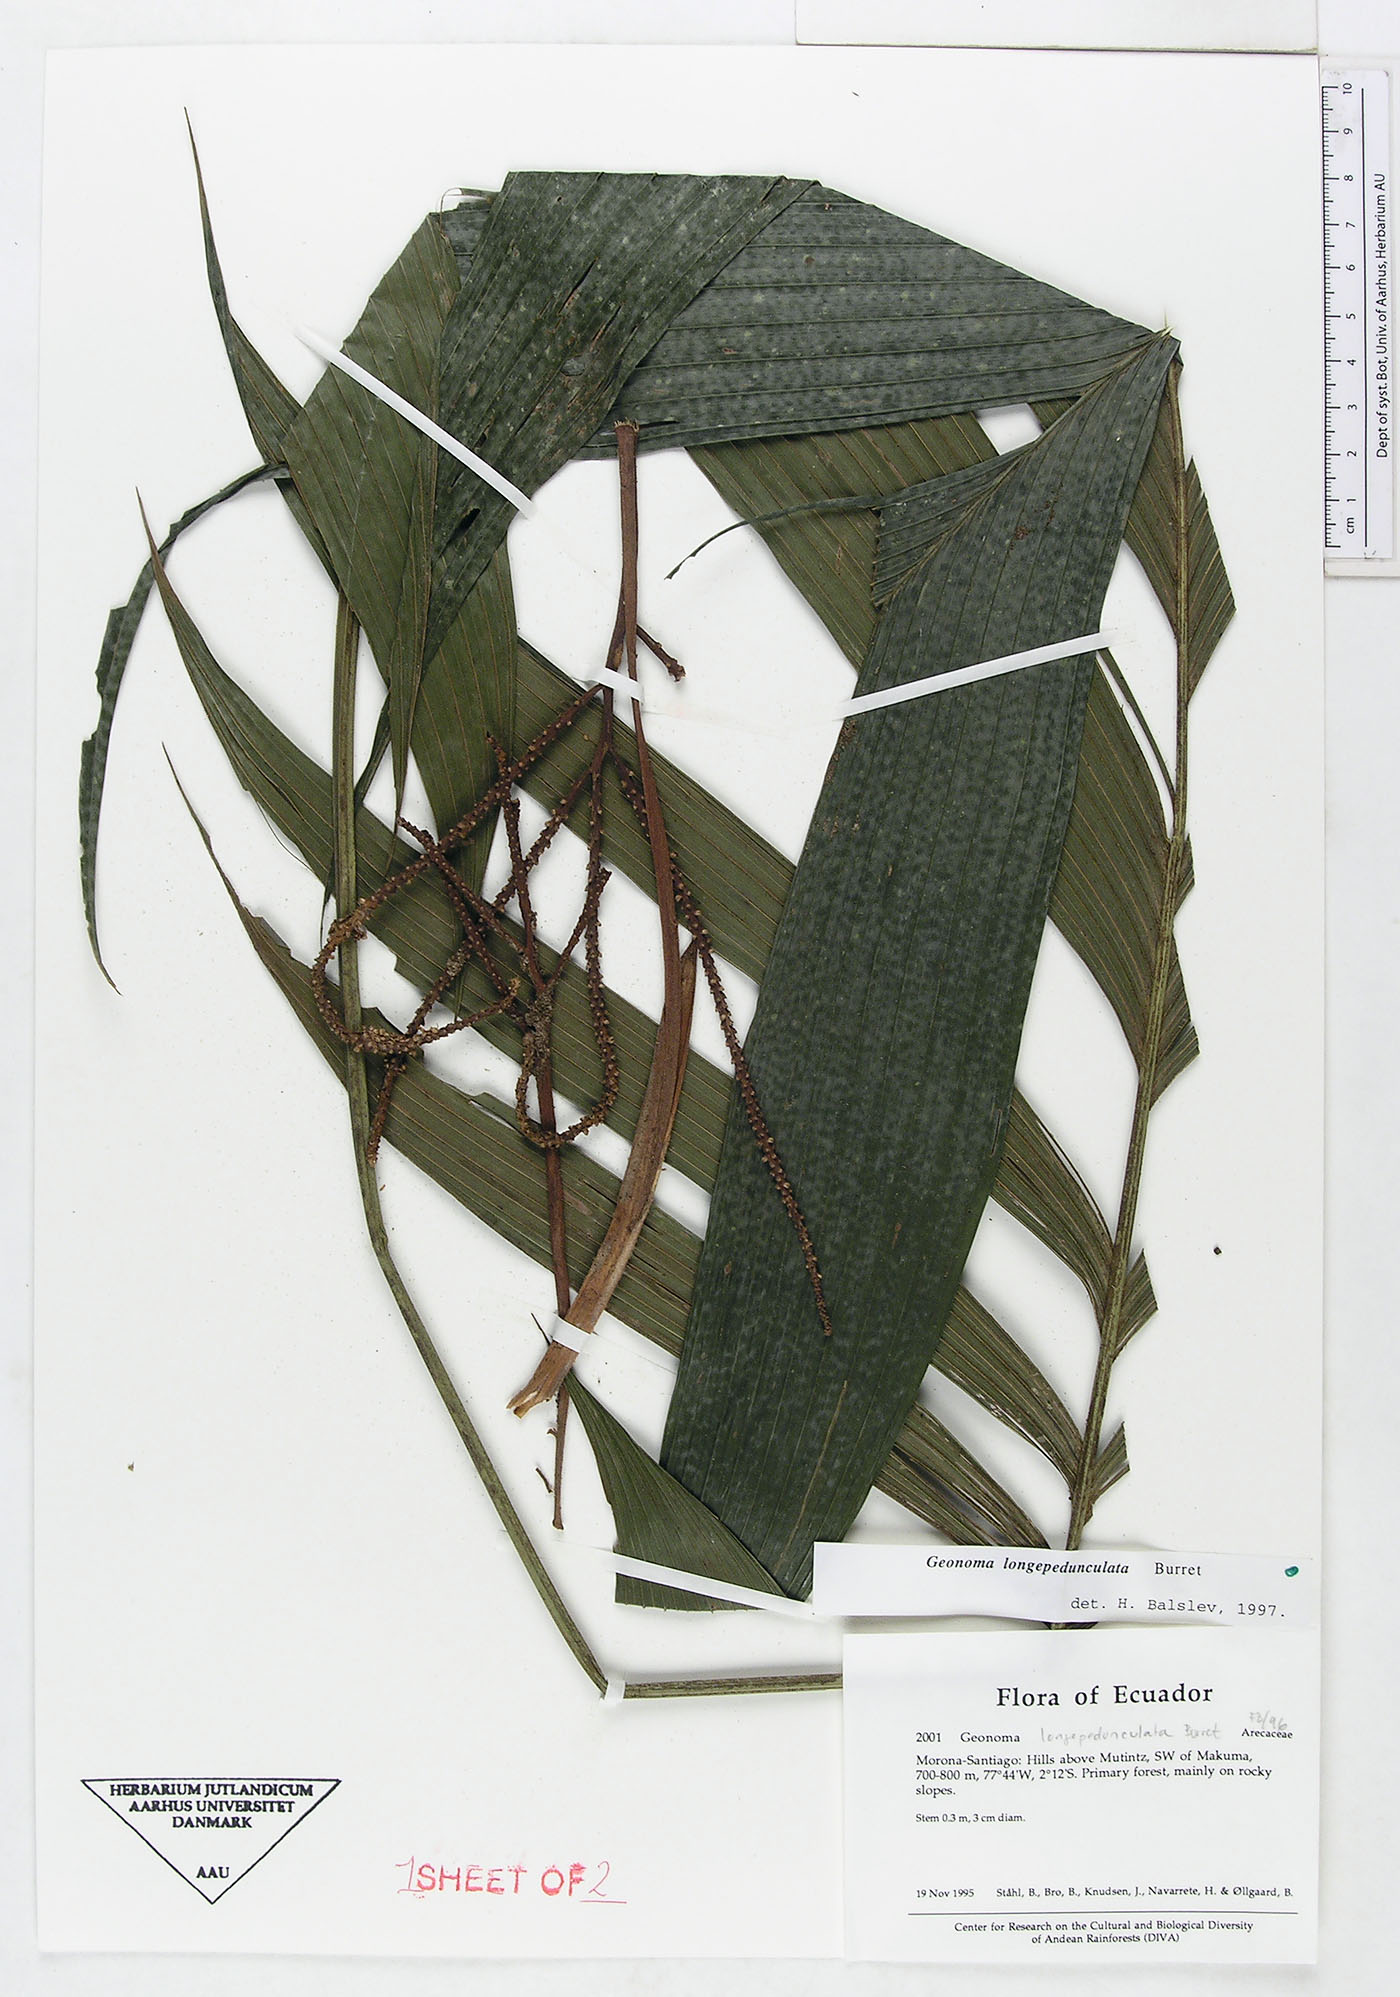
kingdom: Plantae
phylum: Tracheophyta
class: Liliopsida
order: Arecales
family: Arecaceae
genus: Geonoma
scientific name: Geonoma longepedunculata
